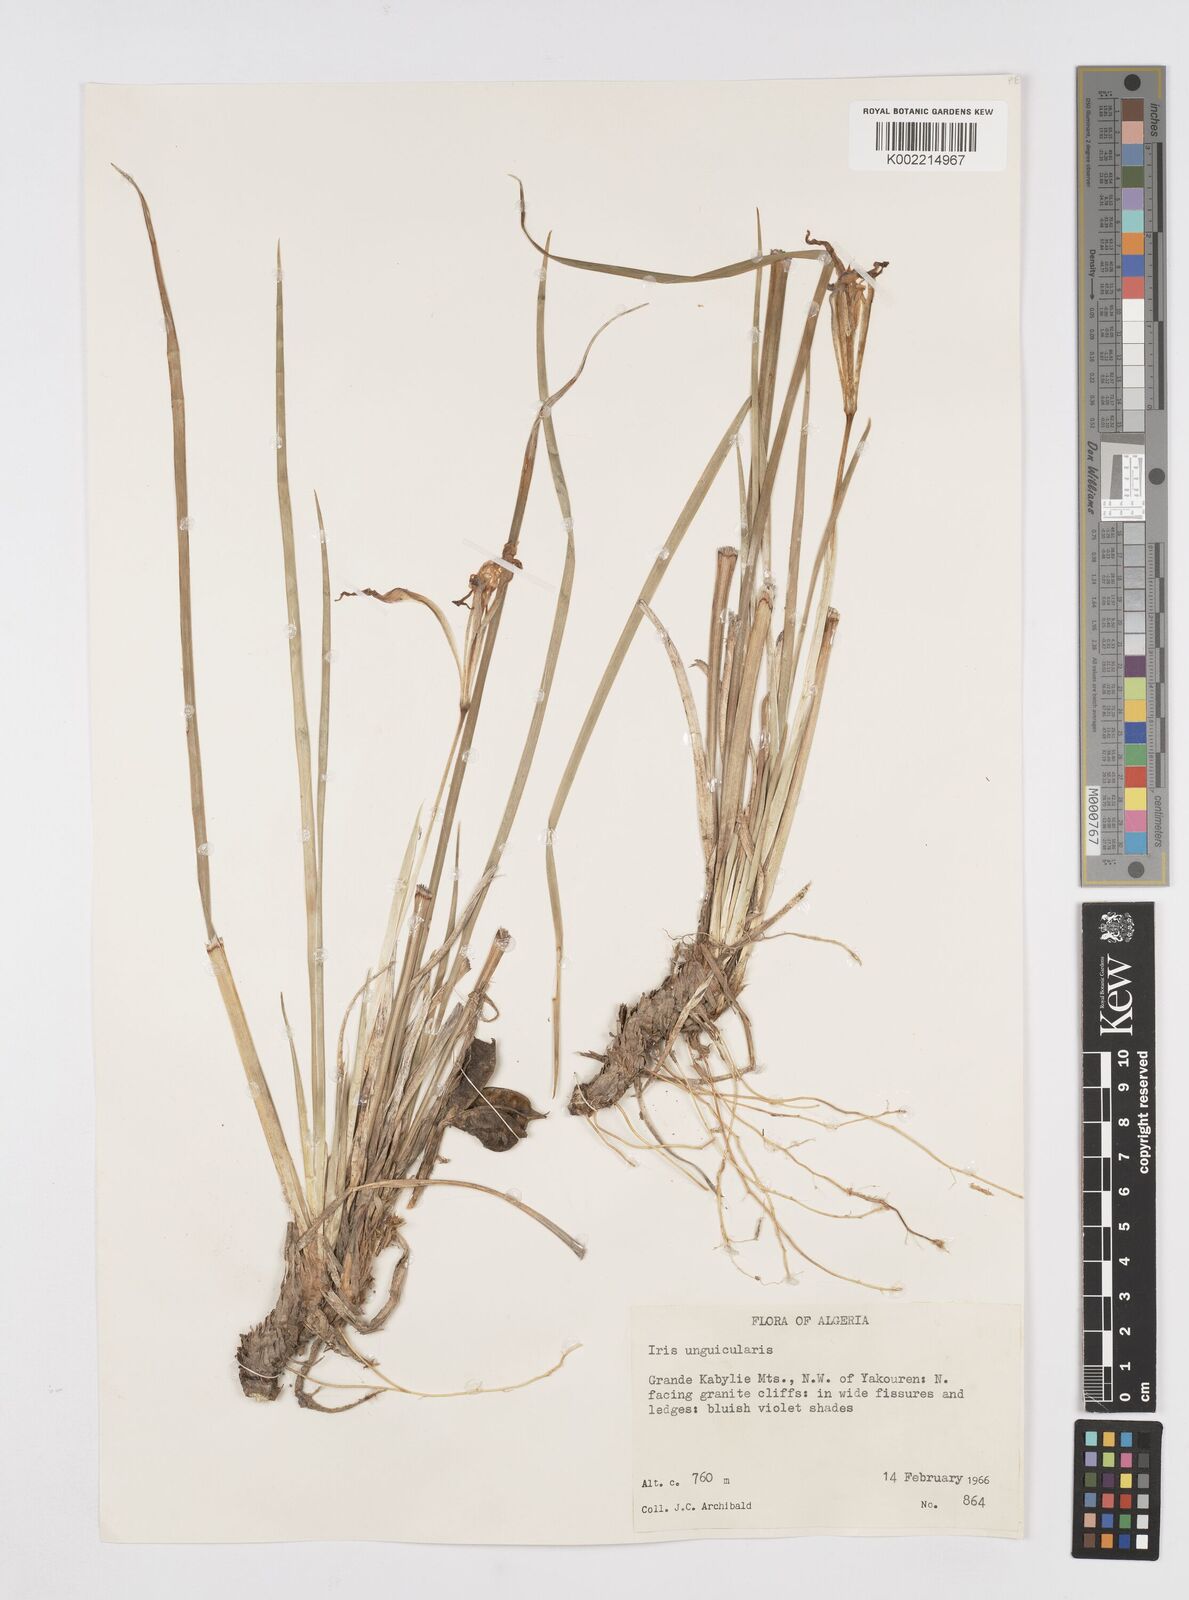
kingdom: Plantae
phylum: Tracheophyta
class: Liliopsida
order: Asparagales
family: Iridaceae
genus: Iris
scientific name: Iris unguicularis
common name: Algerian iris
